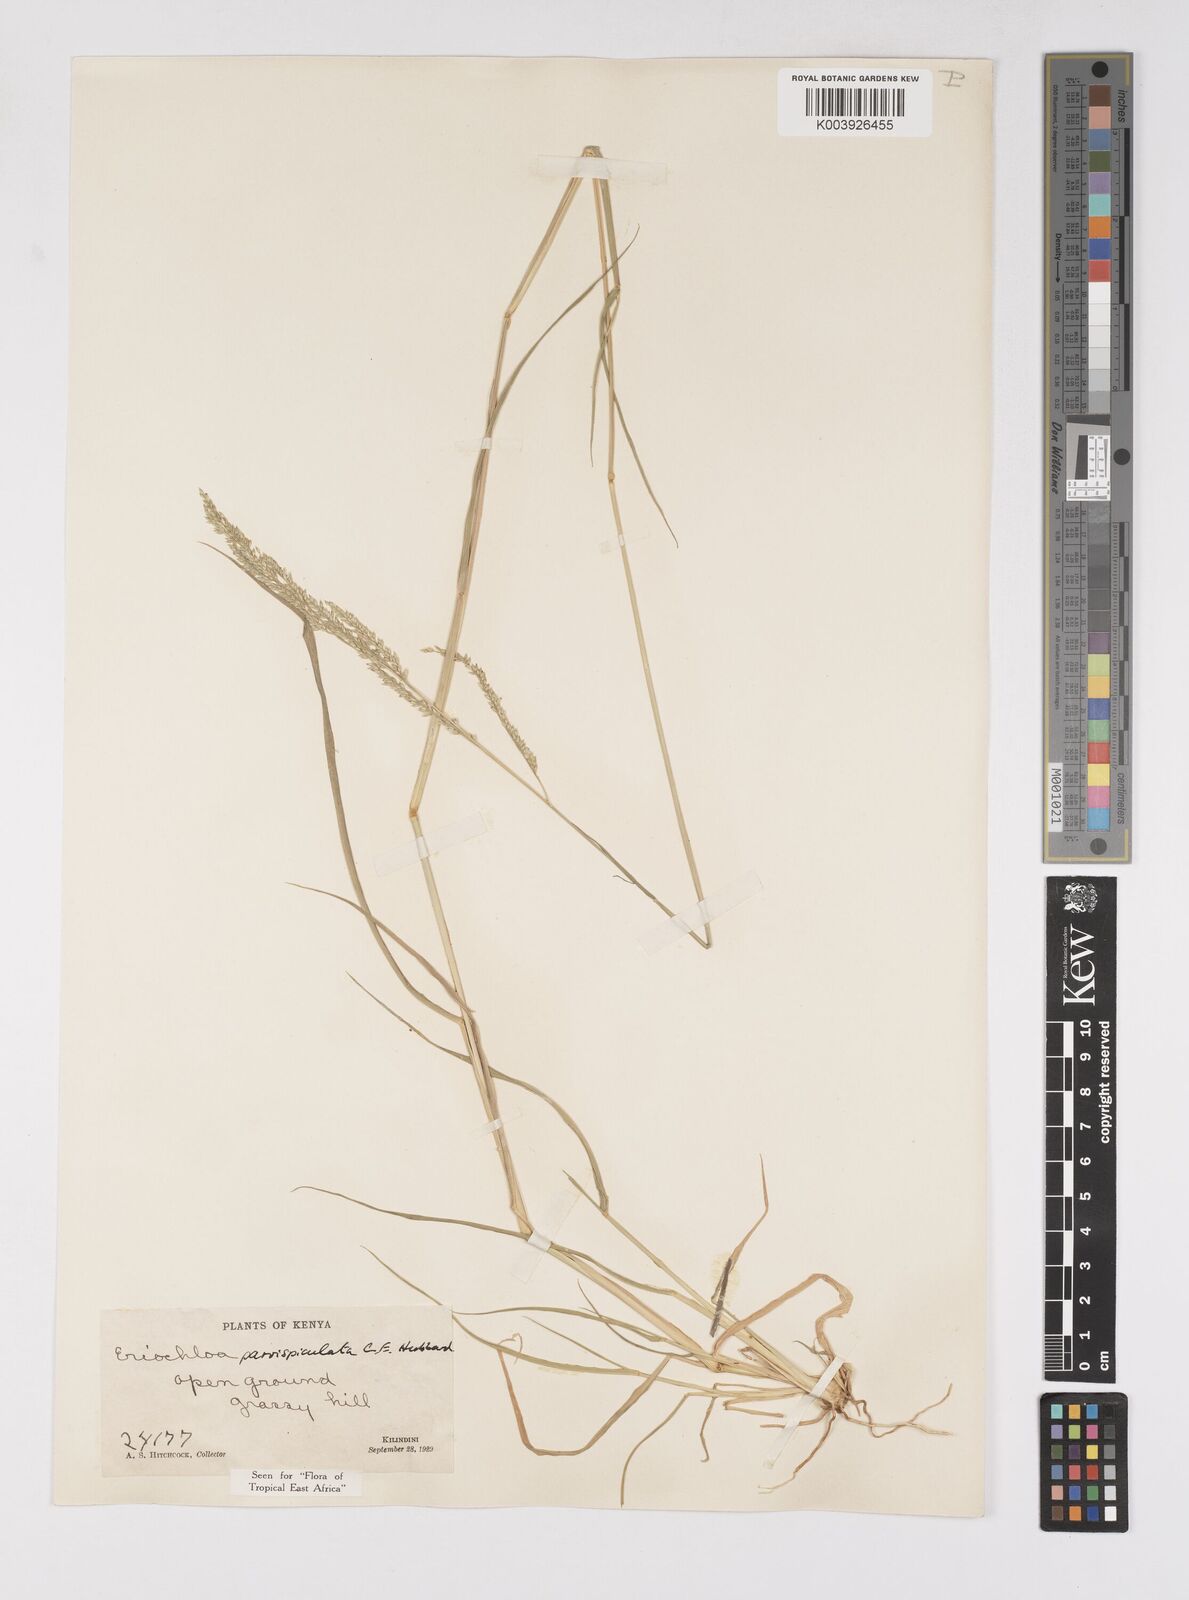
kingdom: Plantae
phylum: Tracheophyta
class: Liliopsida
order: Poales
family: Poaceae
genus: Eriochloa
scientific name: Eriochloa parvispiculata
